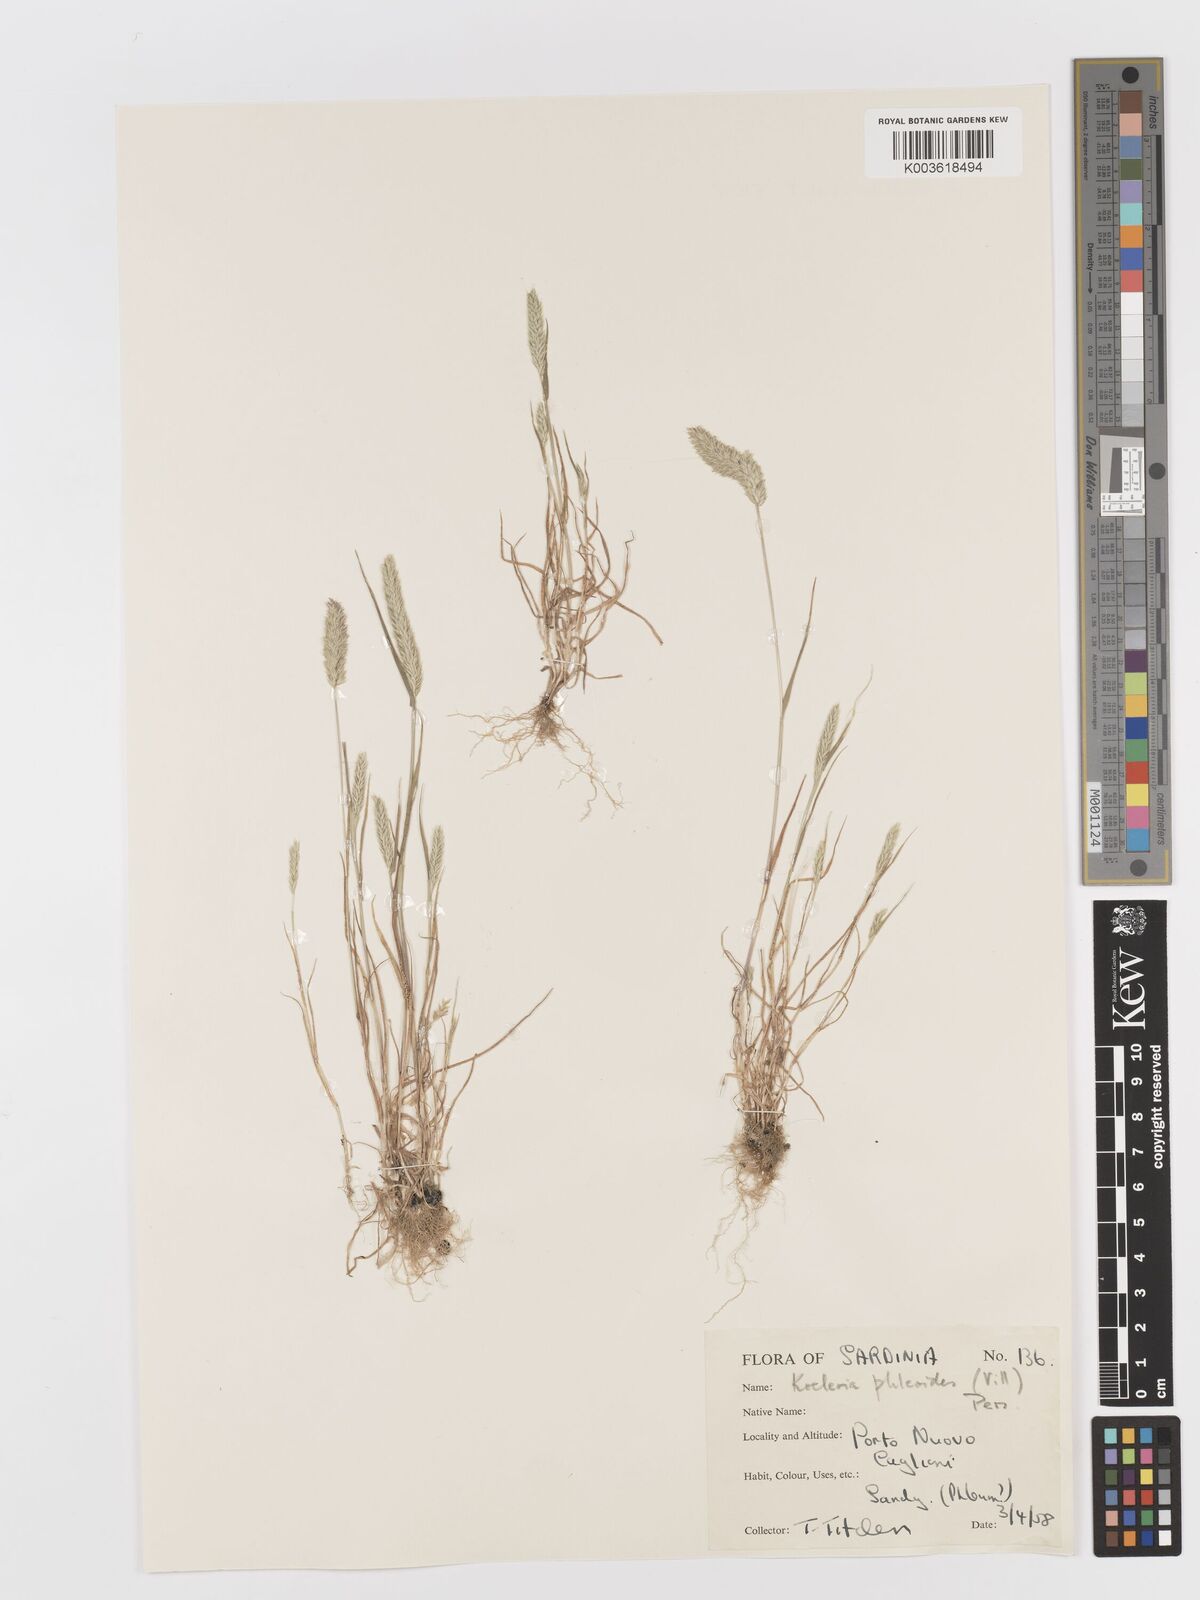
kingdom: Plantae
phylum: Tracheophyta
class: Liliopsida
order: Poales
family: Poaceae
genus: Rostraria
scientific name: Rostraria cristata
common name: Mediterranean hair-grass
